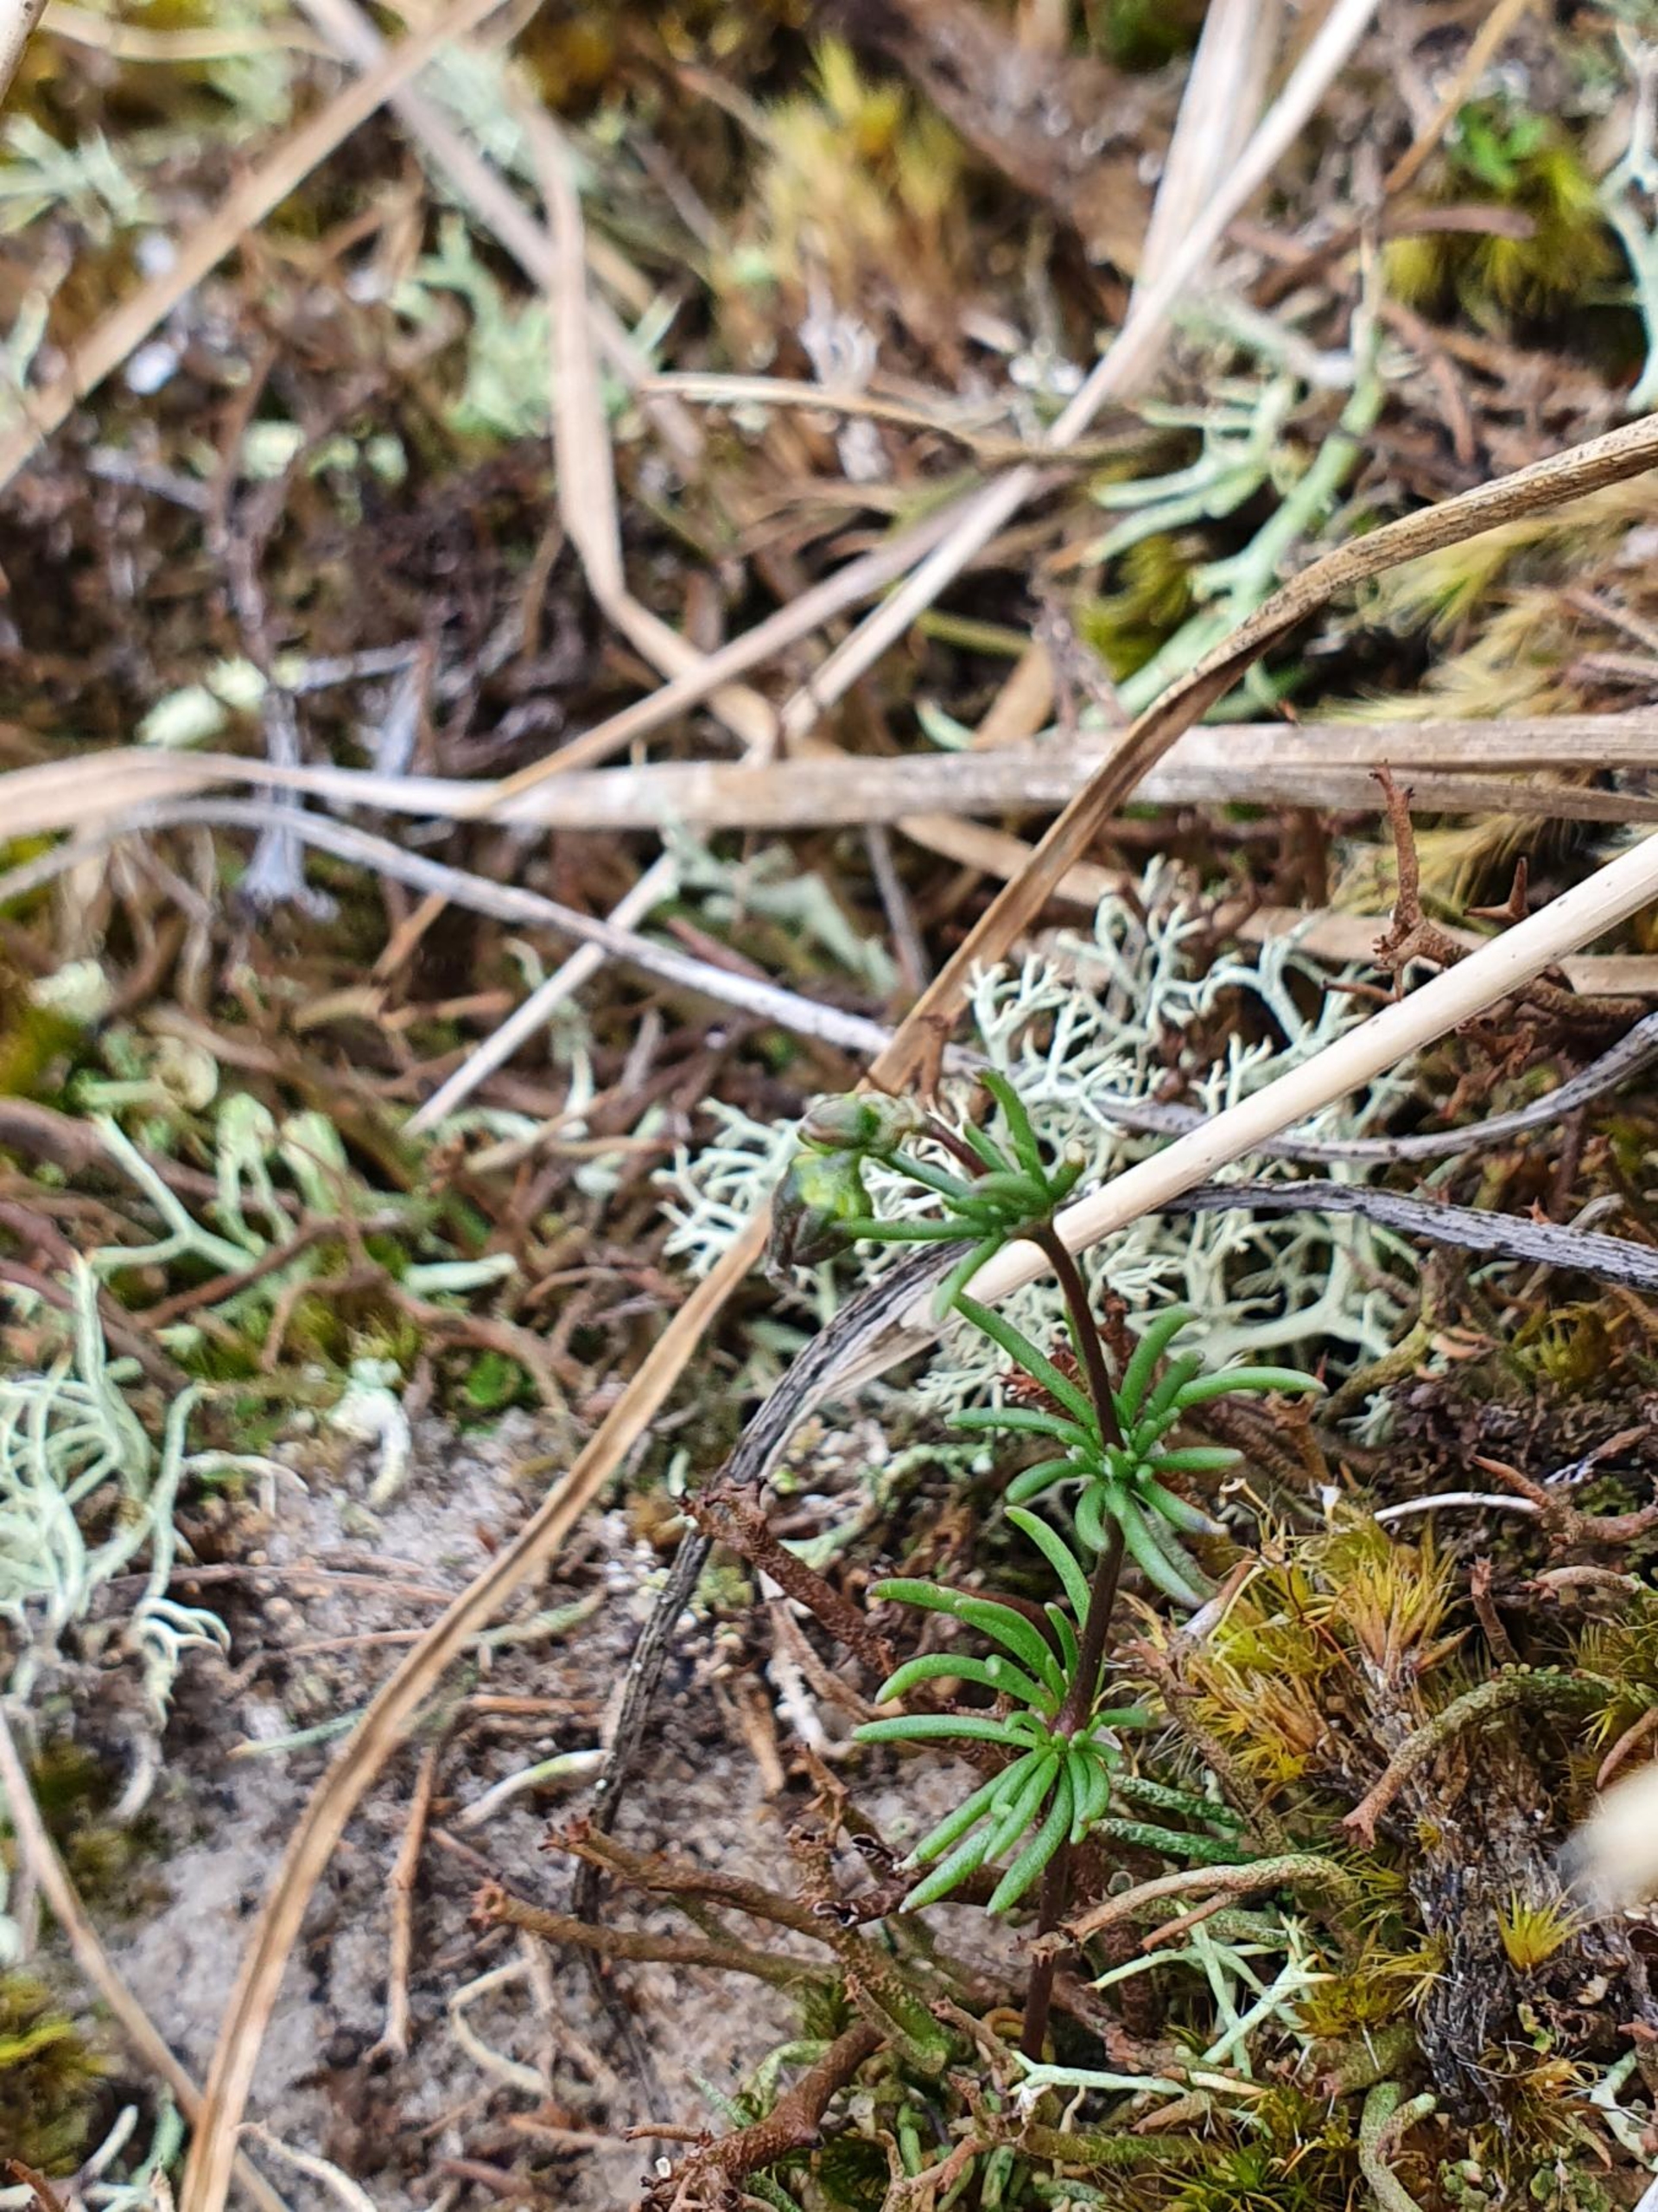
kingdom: Plantae
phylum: Tracheophyta
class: Magnoliopsida
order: Caryophyllales
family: Caryophyllaceae
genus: Spergula
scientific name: Spergula morisonii
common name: Vår-spergel
